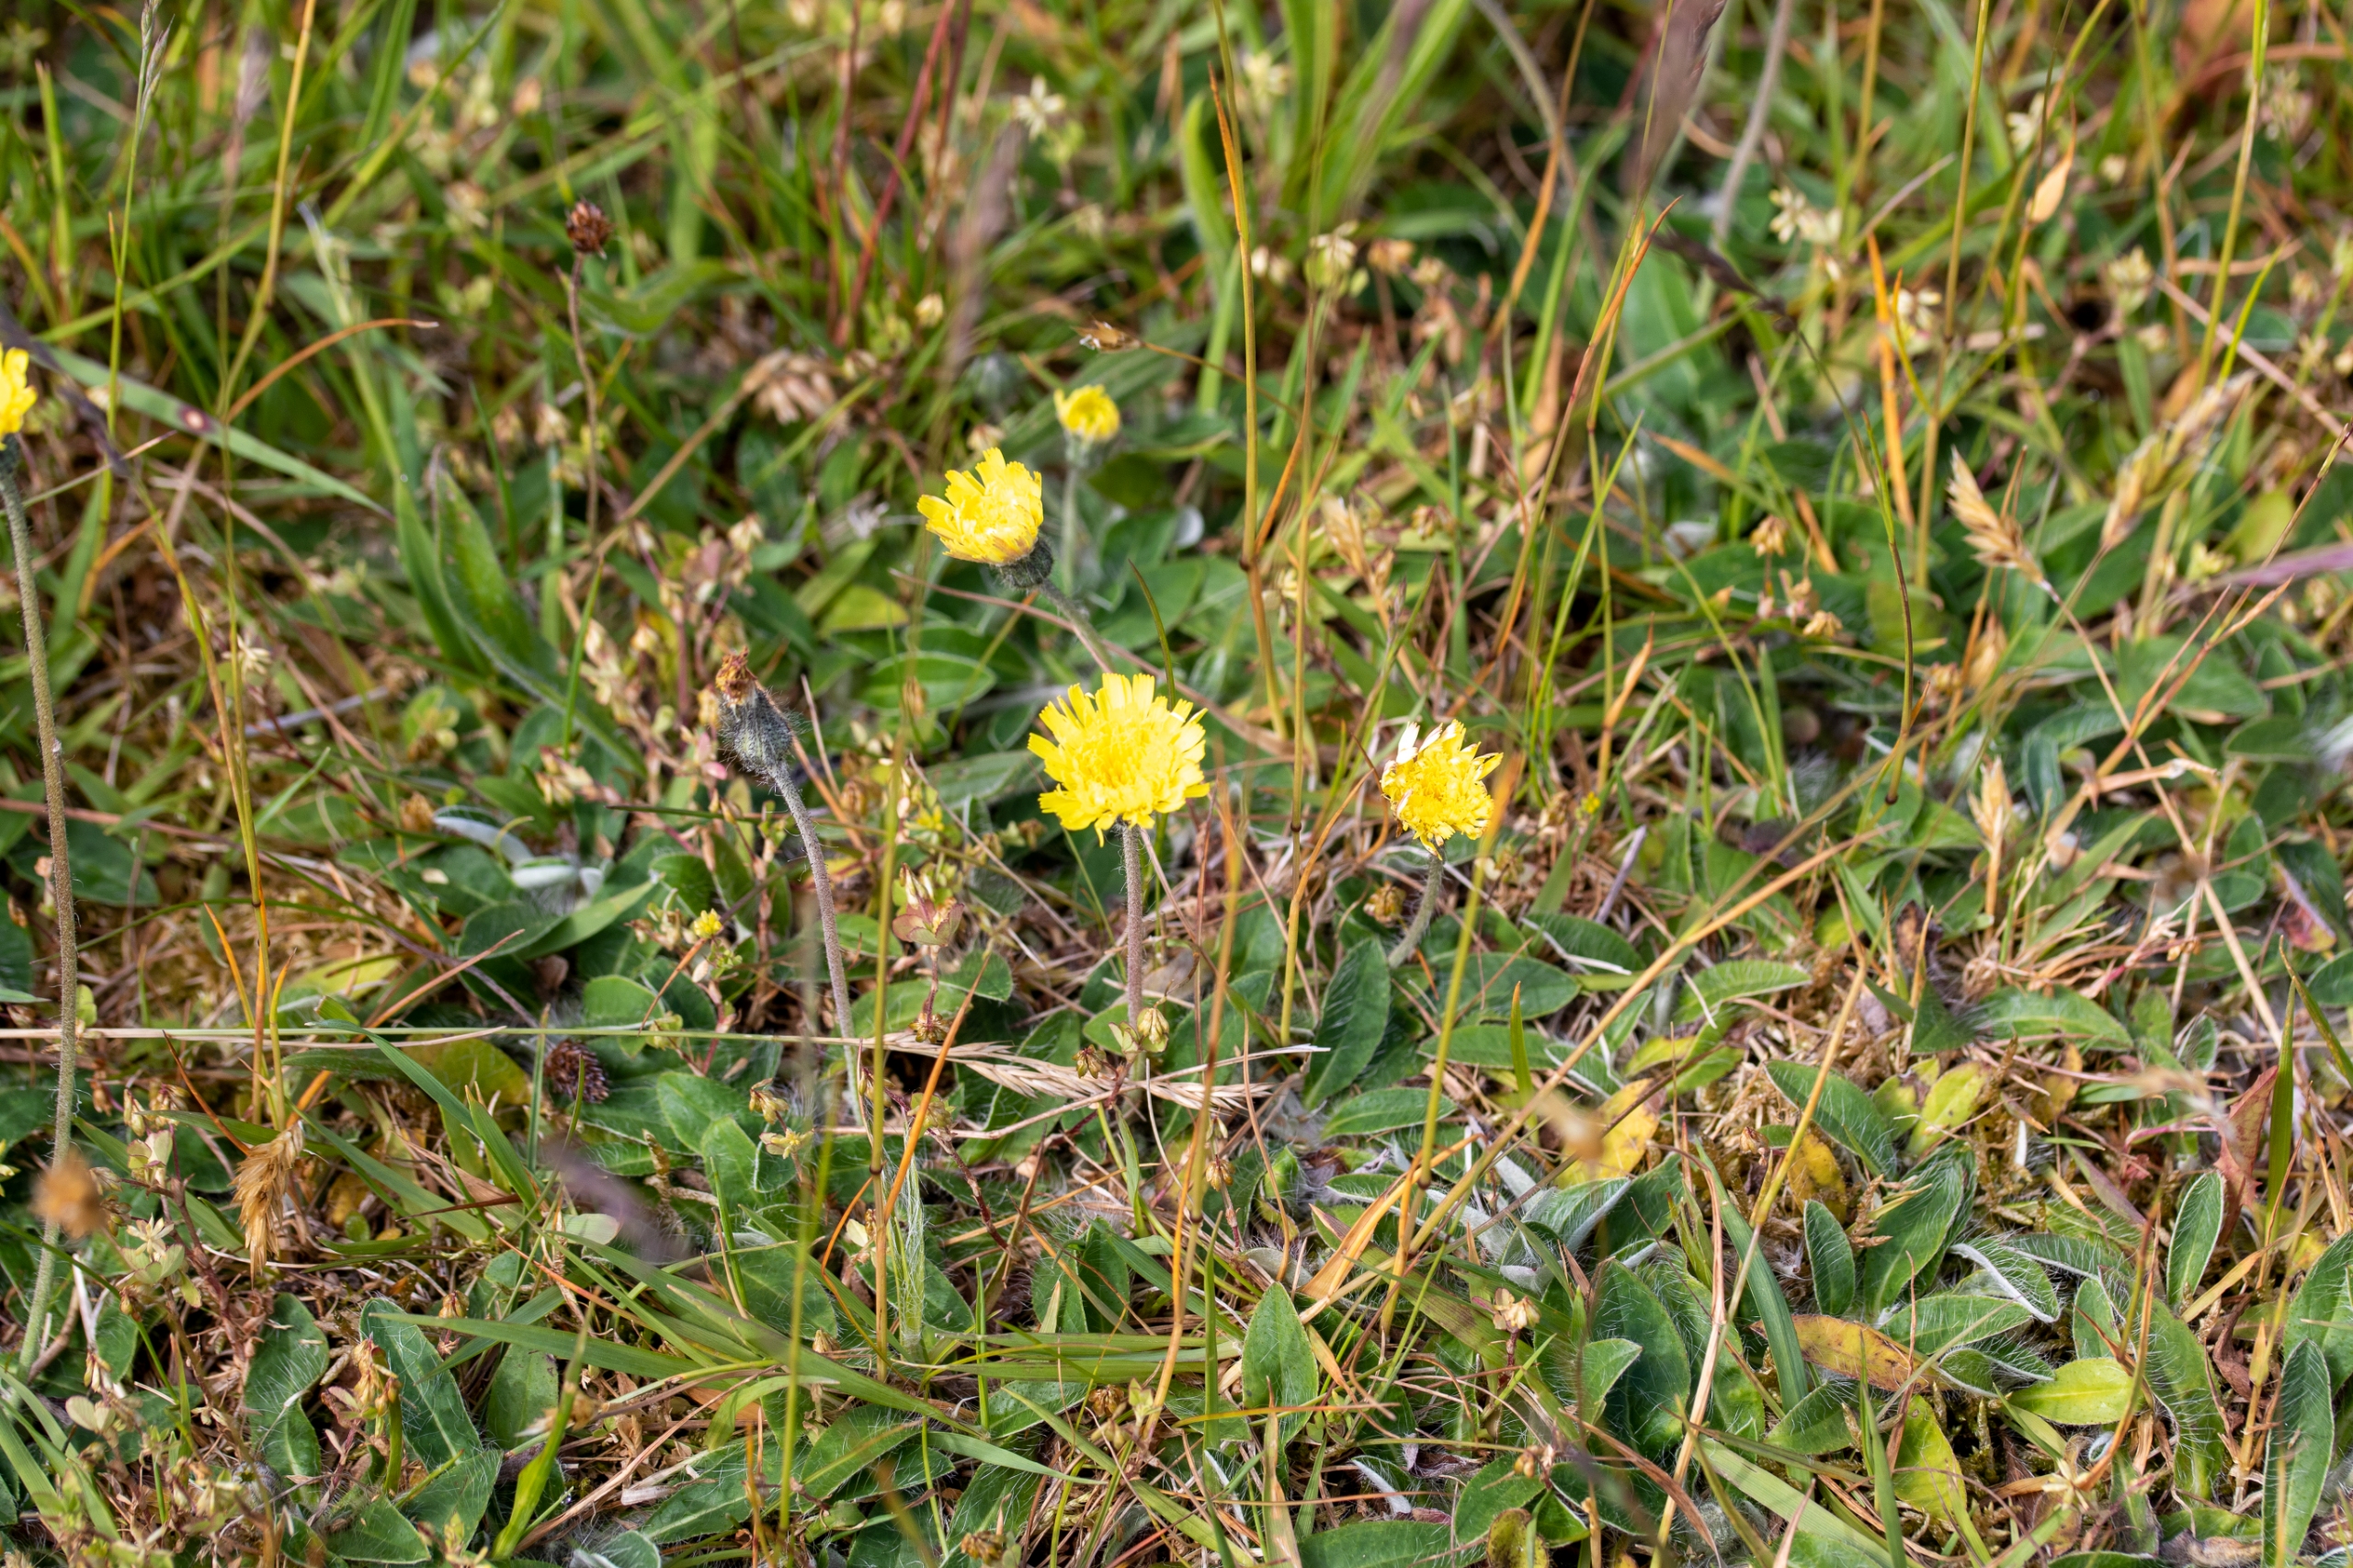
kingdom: Plantae
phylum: Tracheophyta
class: Magnoliopsida
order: Asterales
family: Asteraceae
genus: Pilosella
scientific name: Pilosella officinarum
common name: Håret høgeurt
